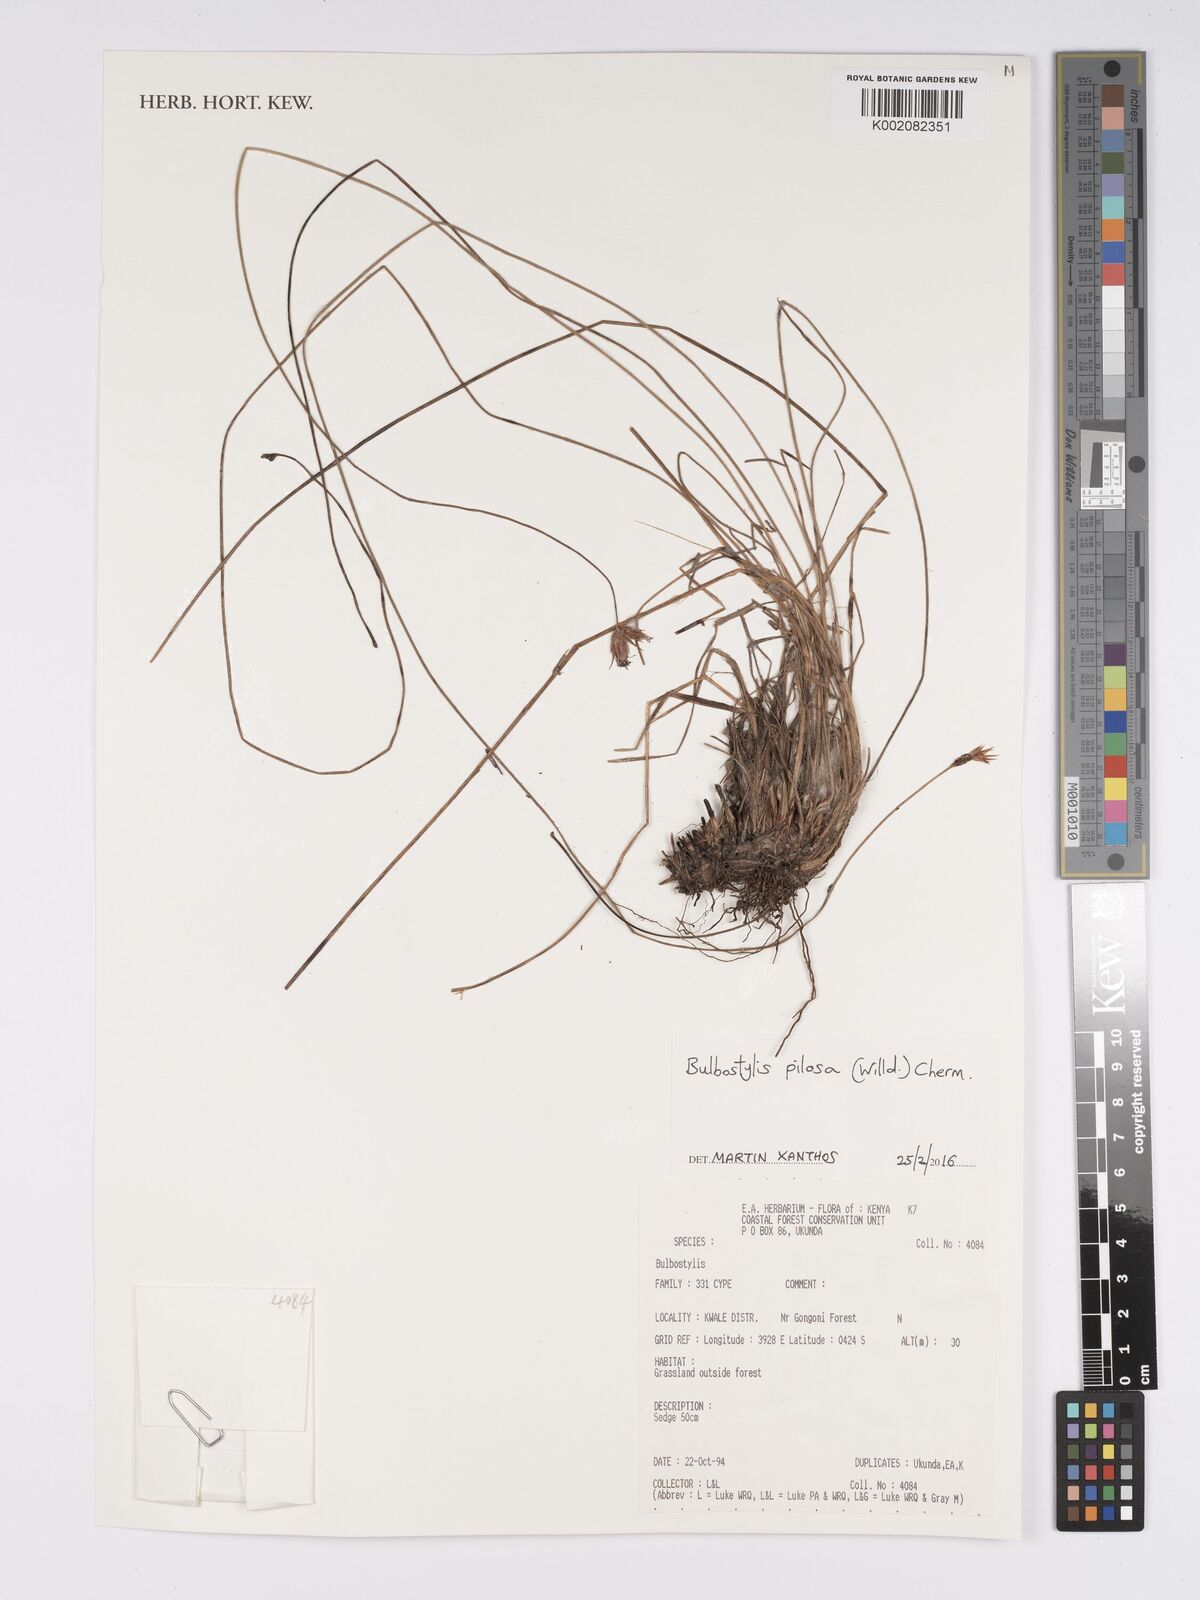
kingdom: Plantae
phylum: Tracheophyta
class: Liliopsida
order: Poales
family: Cyperaceae
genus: Bulbostylis
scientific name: Bulbostylis pilosa
